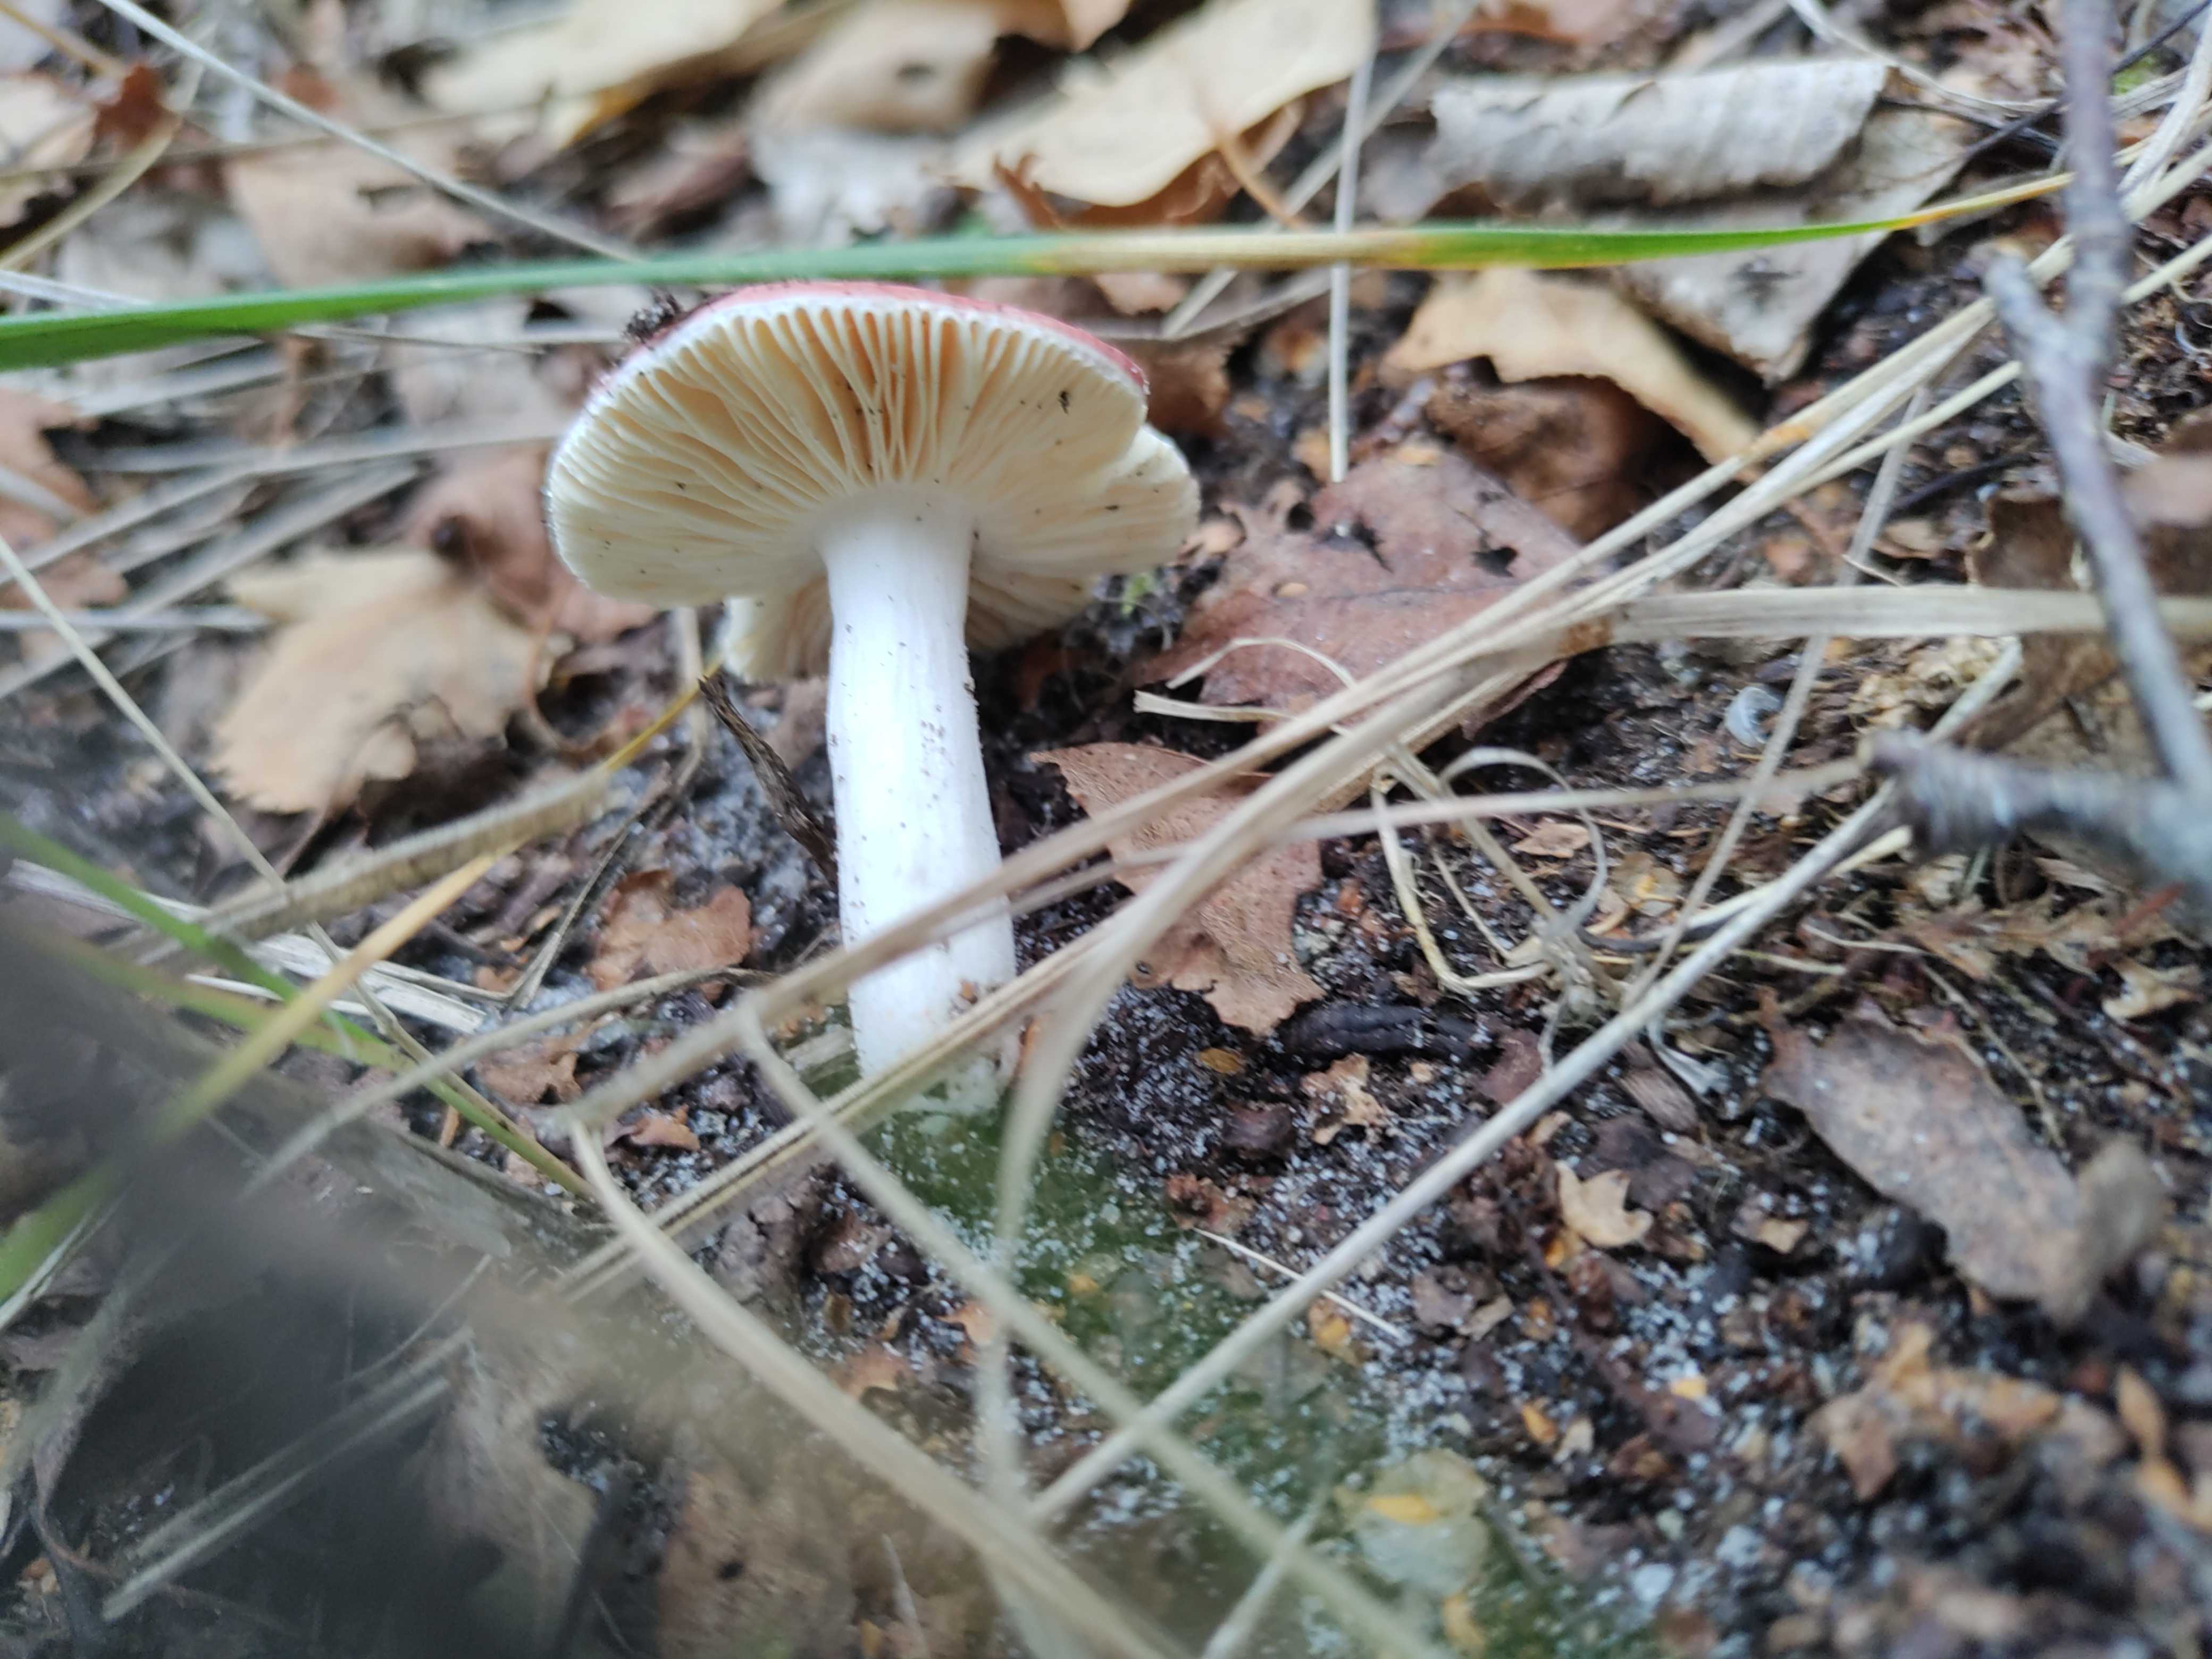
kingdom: Fungi
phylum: Basidiomycota
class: Agaricomycetes
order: Russulales
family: Russulaceae
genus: Russula
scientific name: Russula
